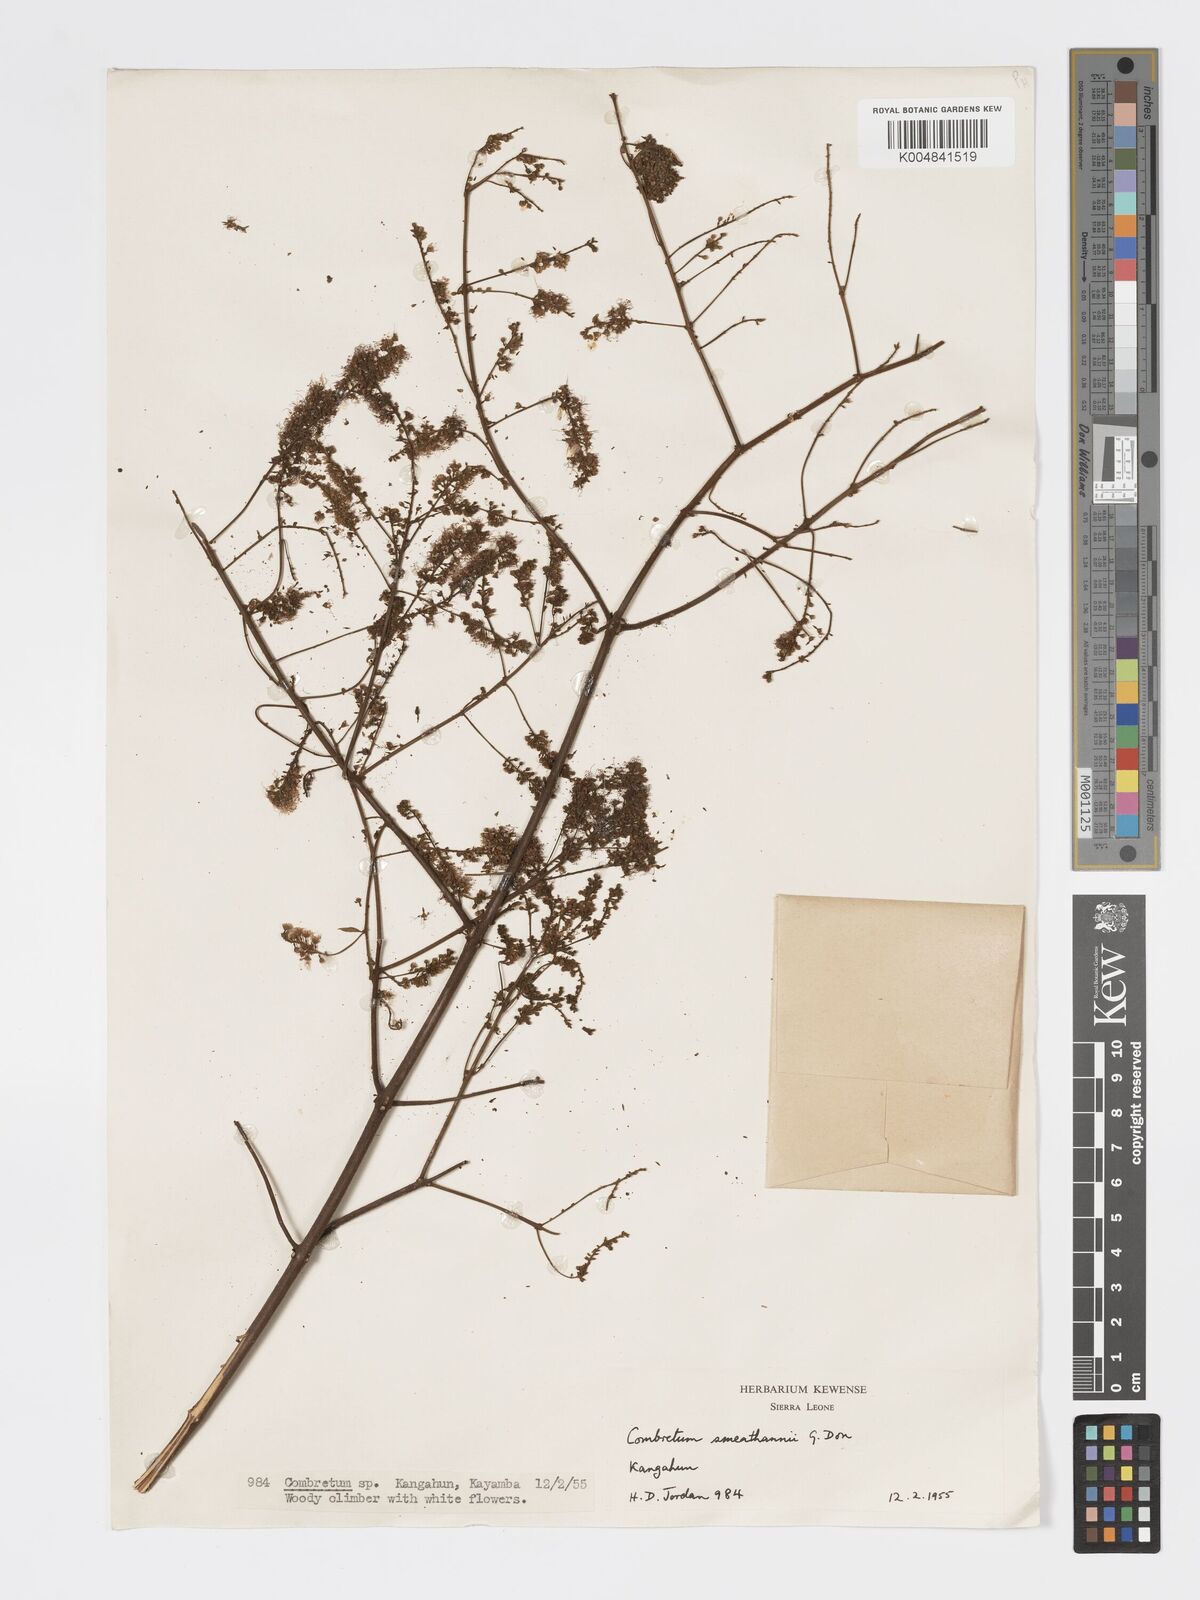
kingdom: Plantae
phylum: Tracheophyta
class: Magnoliopsida
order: Myrtales
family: Combretaceae
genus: Combretum
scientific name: Combretum mucronatum
